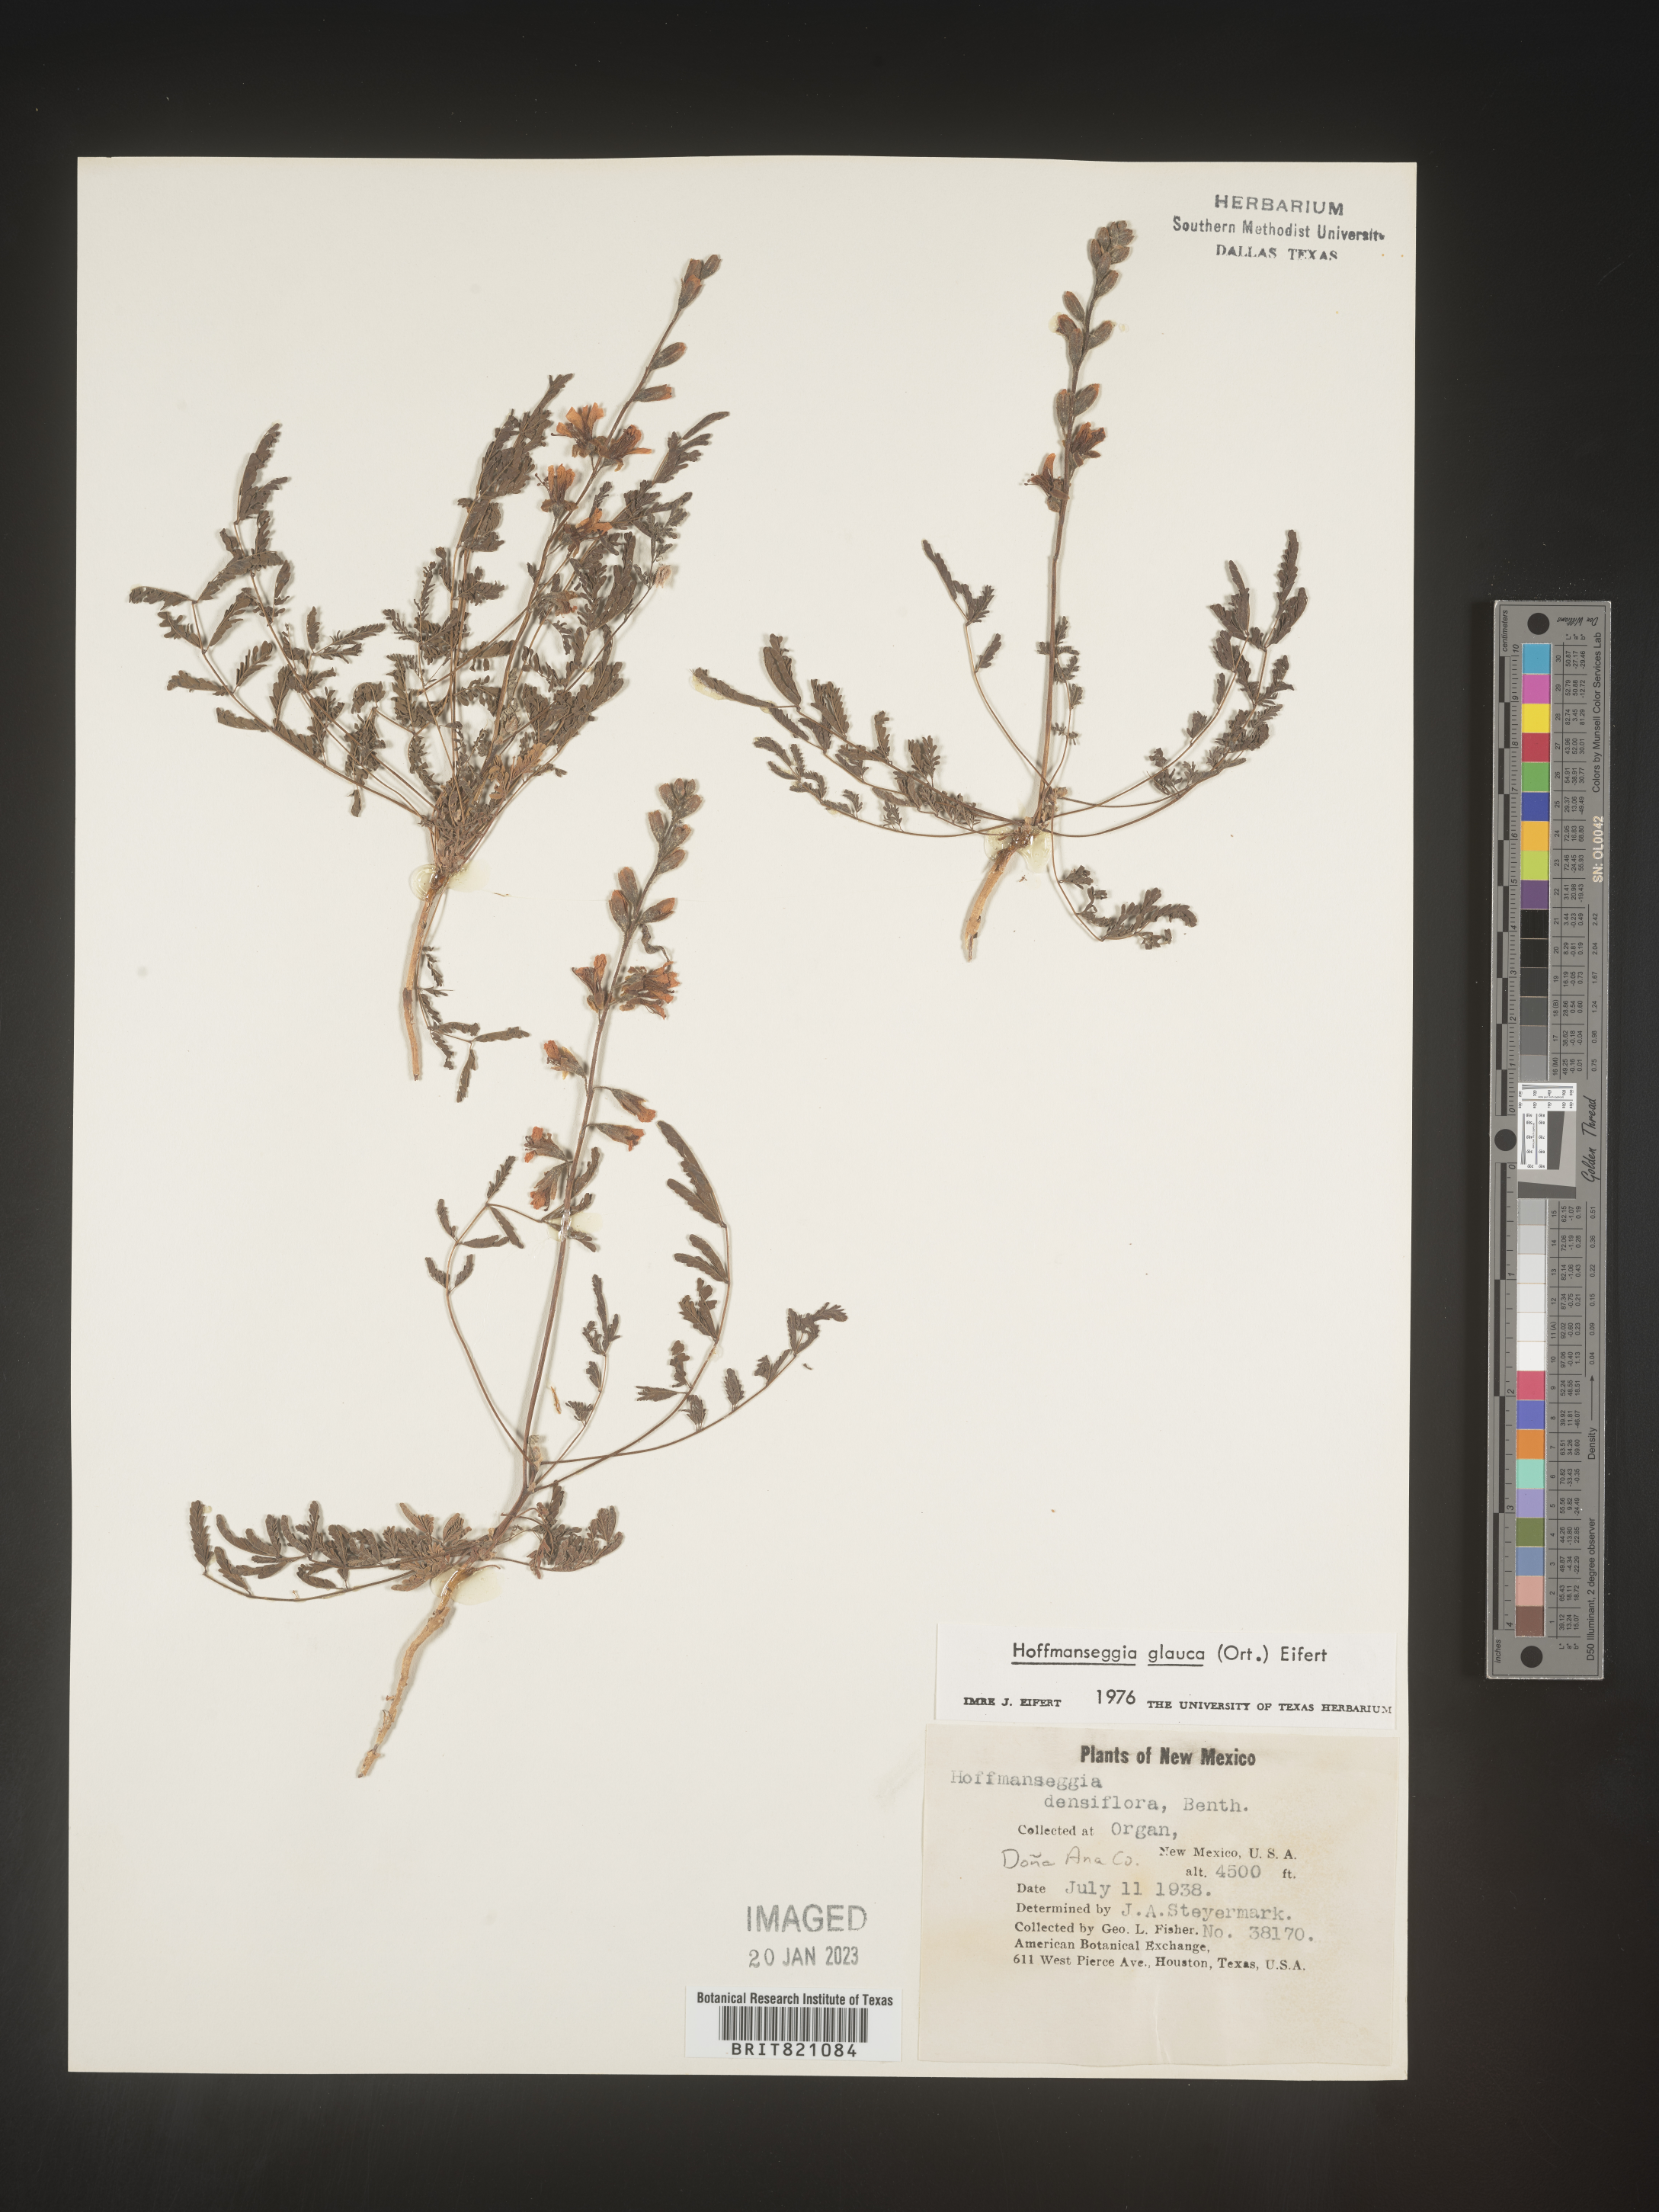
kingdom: Plantae
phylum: Tracheophyta
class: Magnoliopsida
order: Fabales
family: Fabaceae
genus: Hoffmannseggia
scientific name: Hoffmannseggia
